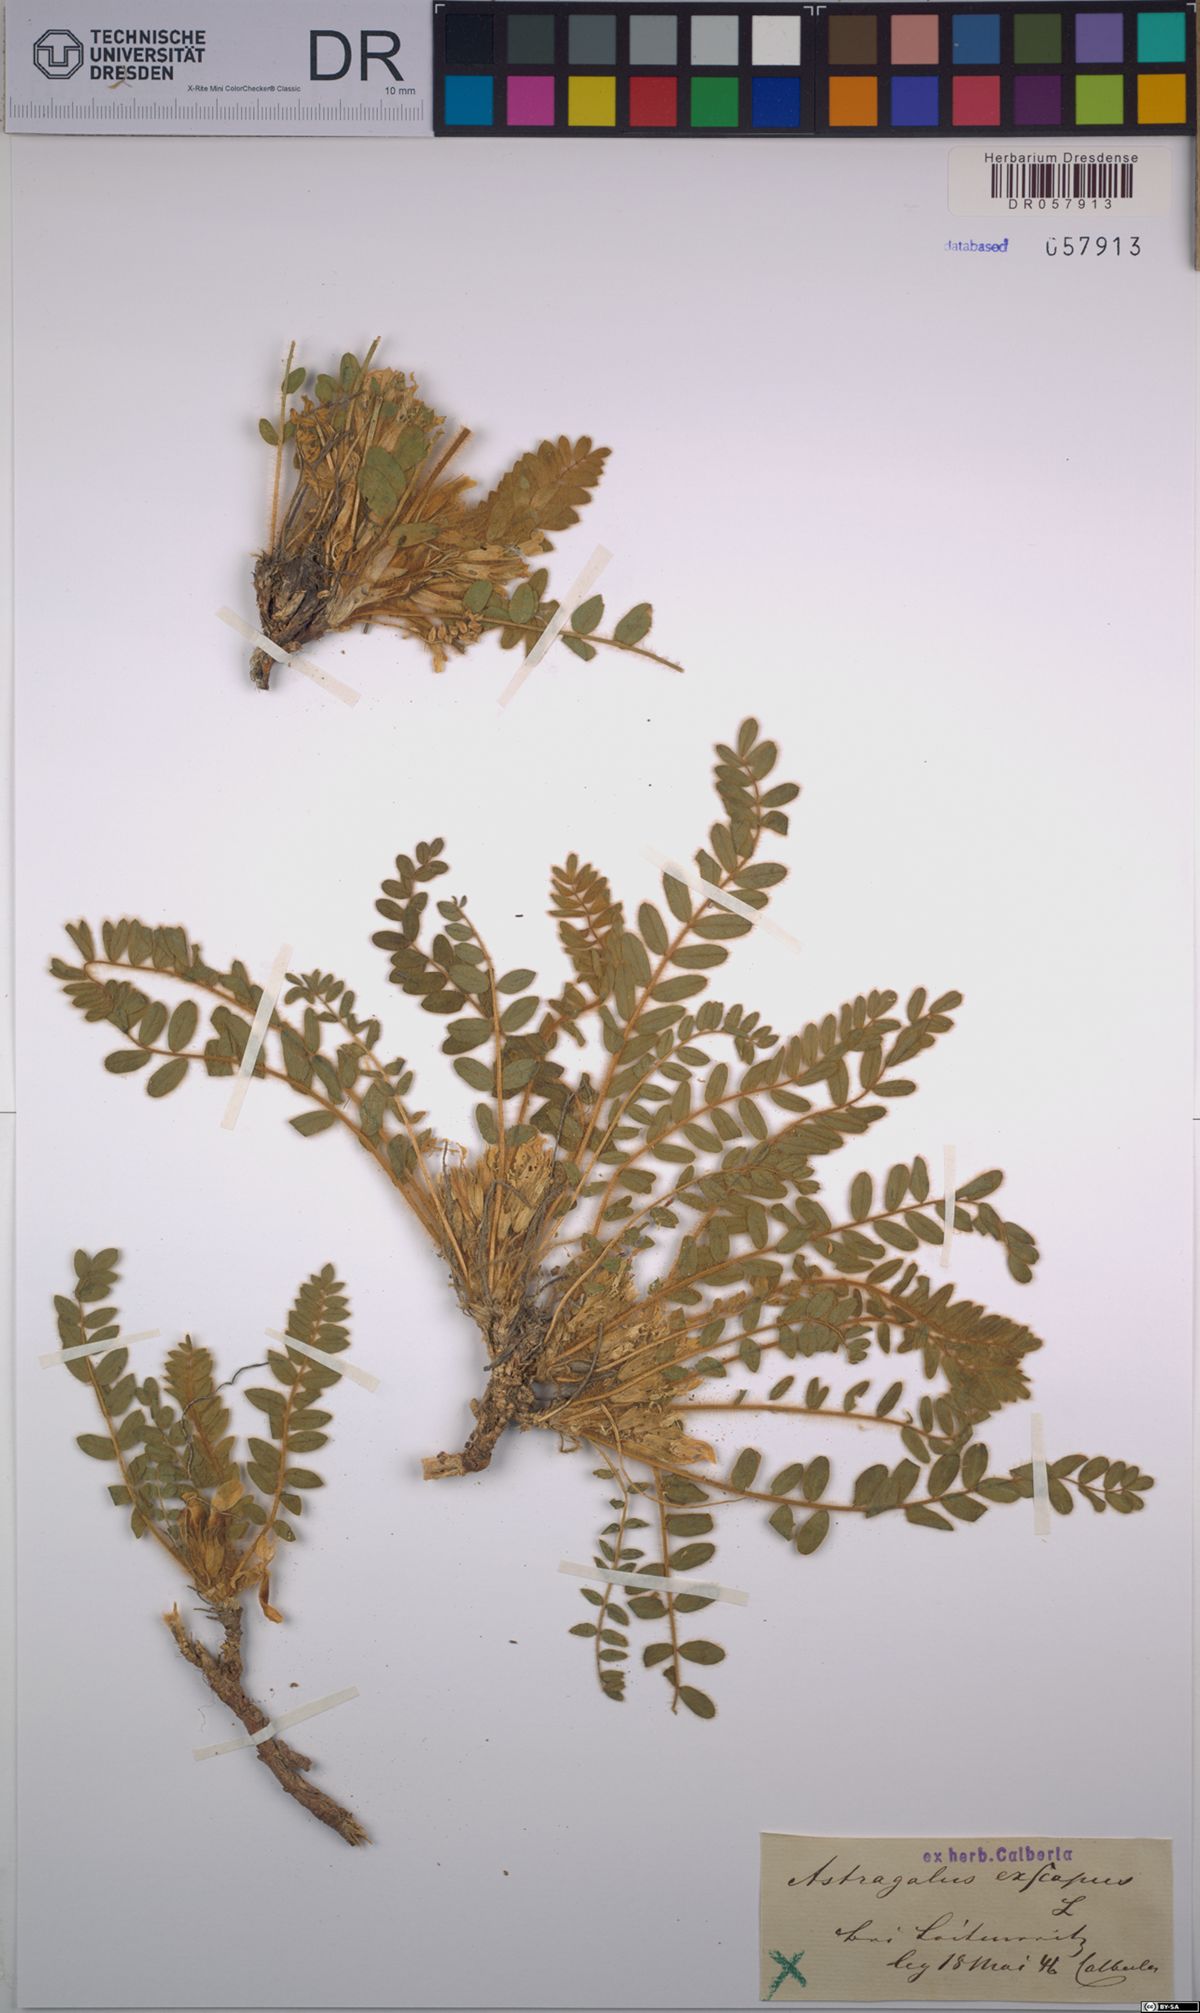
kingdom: Plantae
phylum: Tracheophyta
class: Magnoliopsida
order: Fabales
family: Fabaceae
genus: Astragalus
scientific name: Astragalus exscapus
